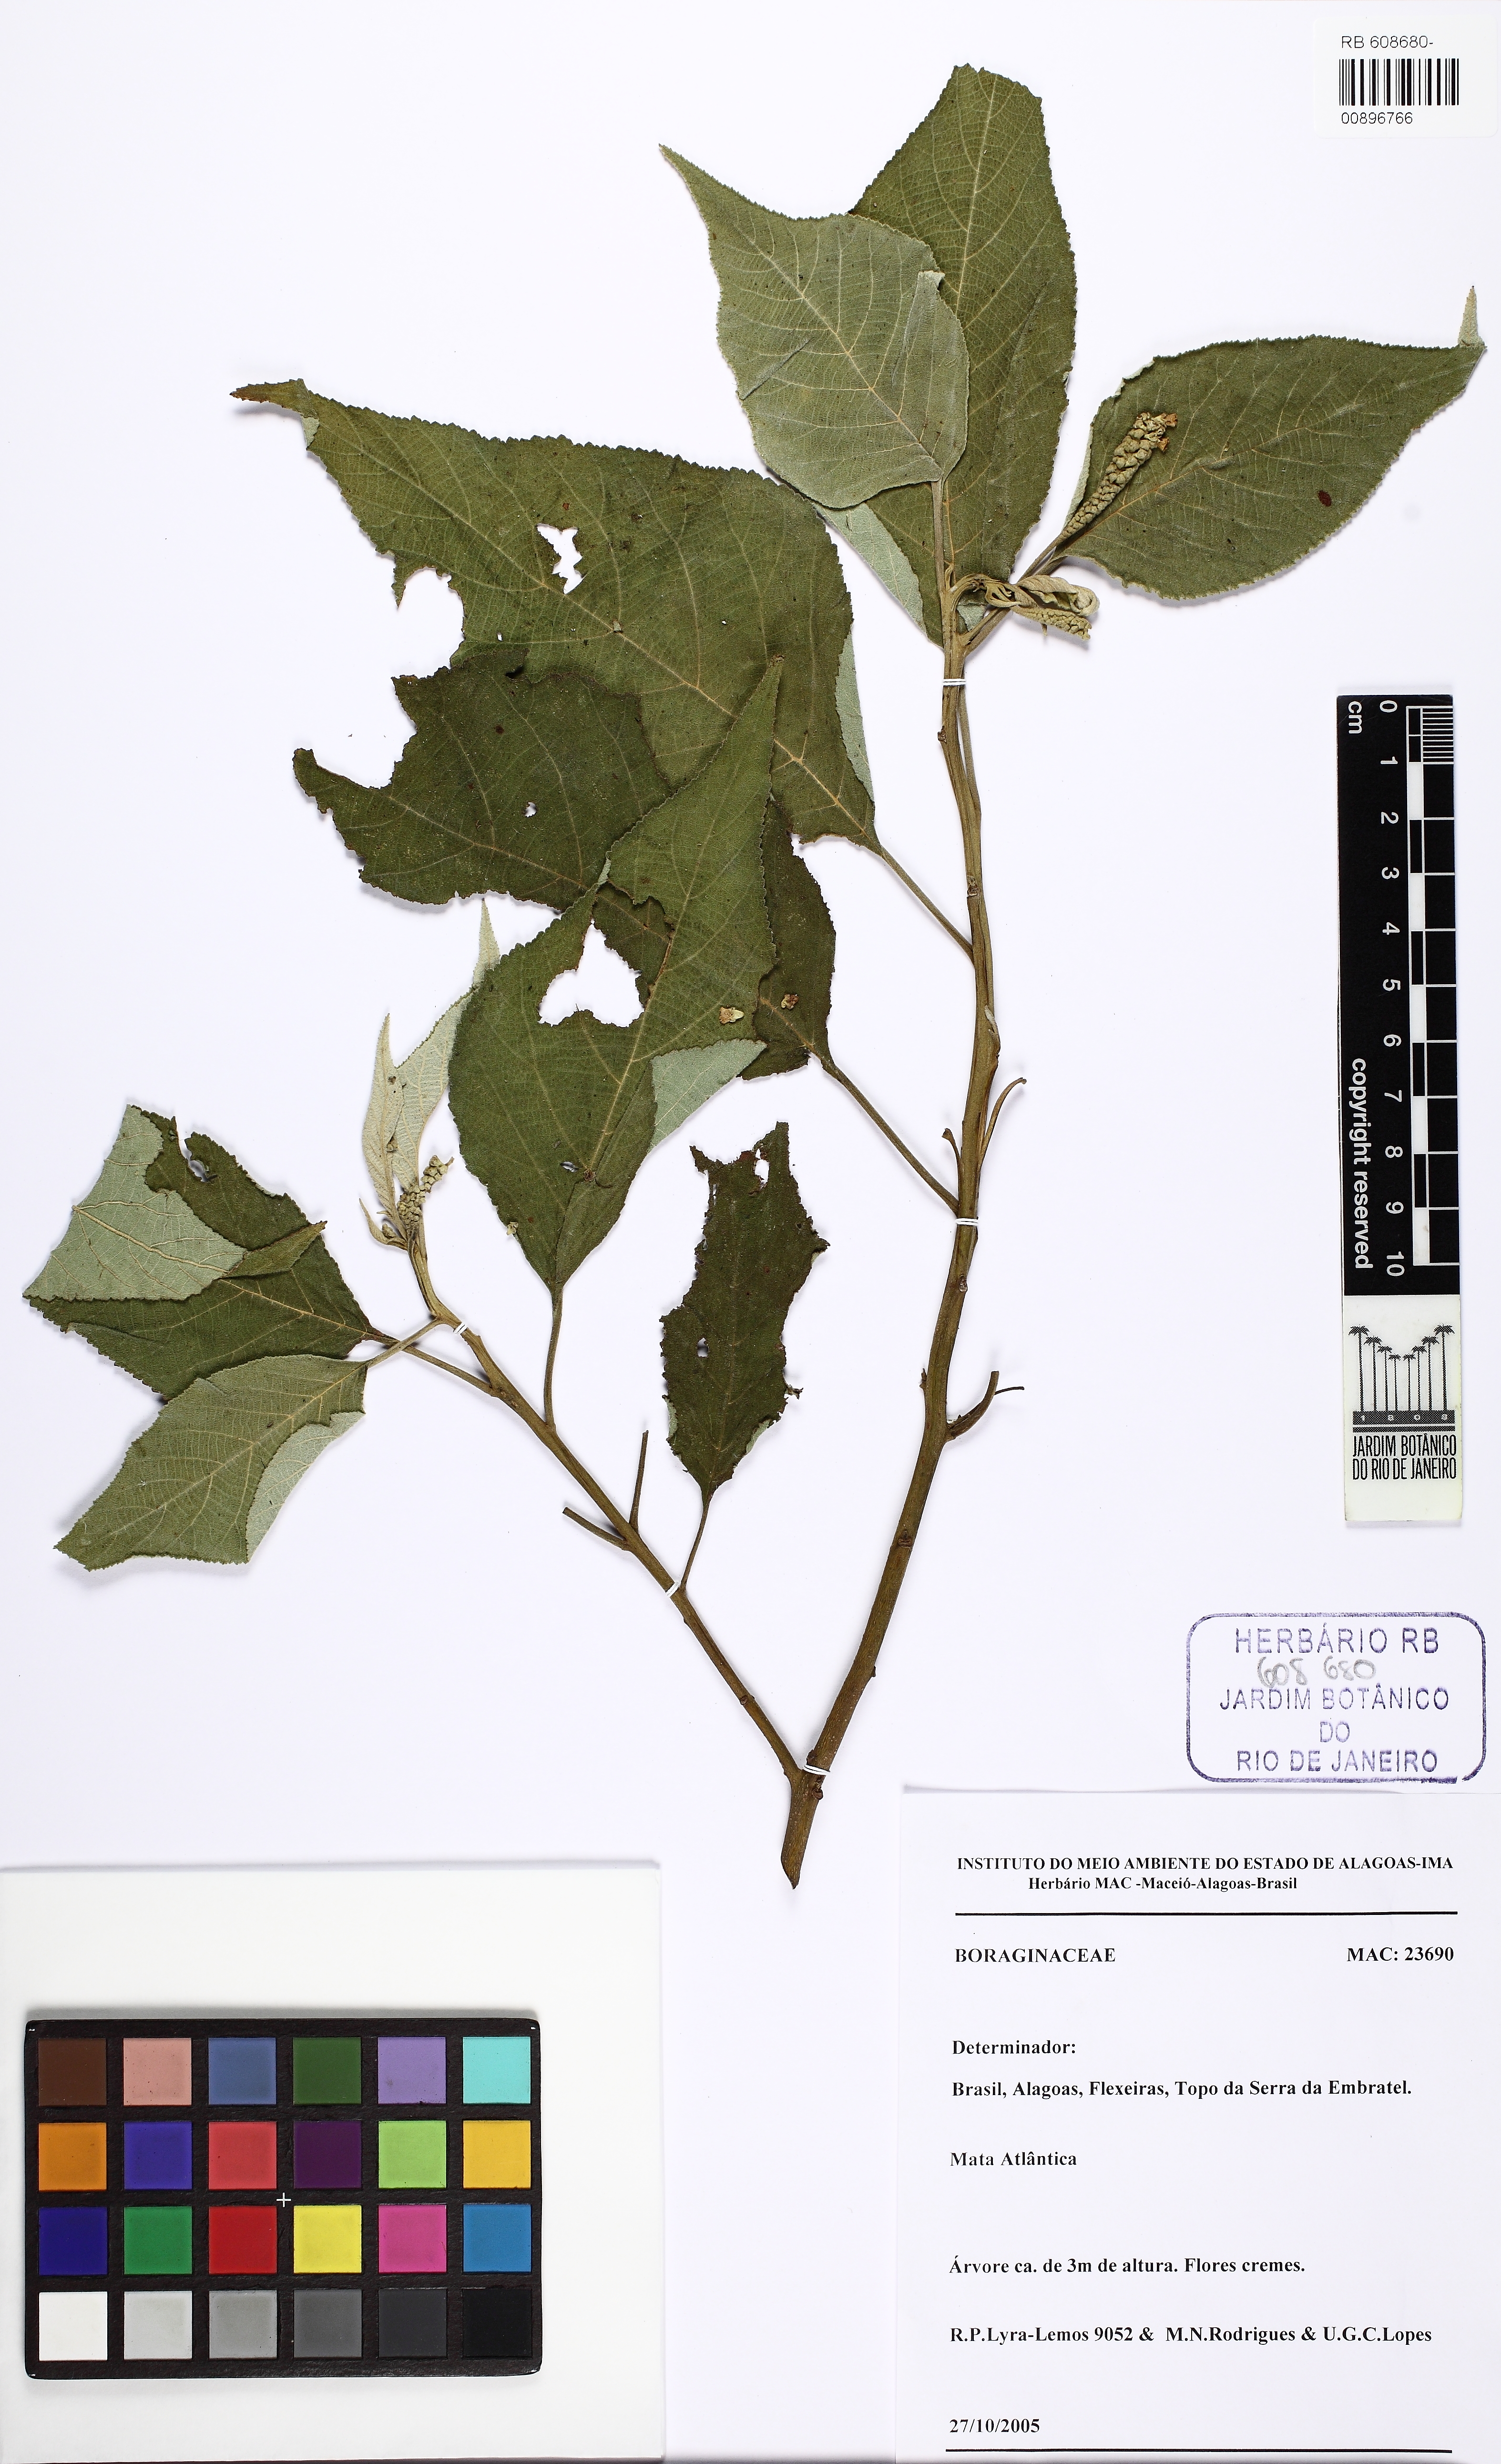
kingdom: Plantae
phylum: Tracheophyta
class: Magnoliopsida
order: Boraginales
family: Cordiaceae
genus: Varronia
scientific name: Varronia multispicata
